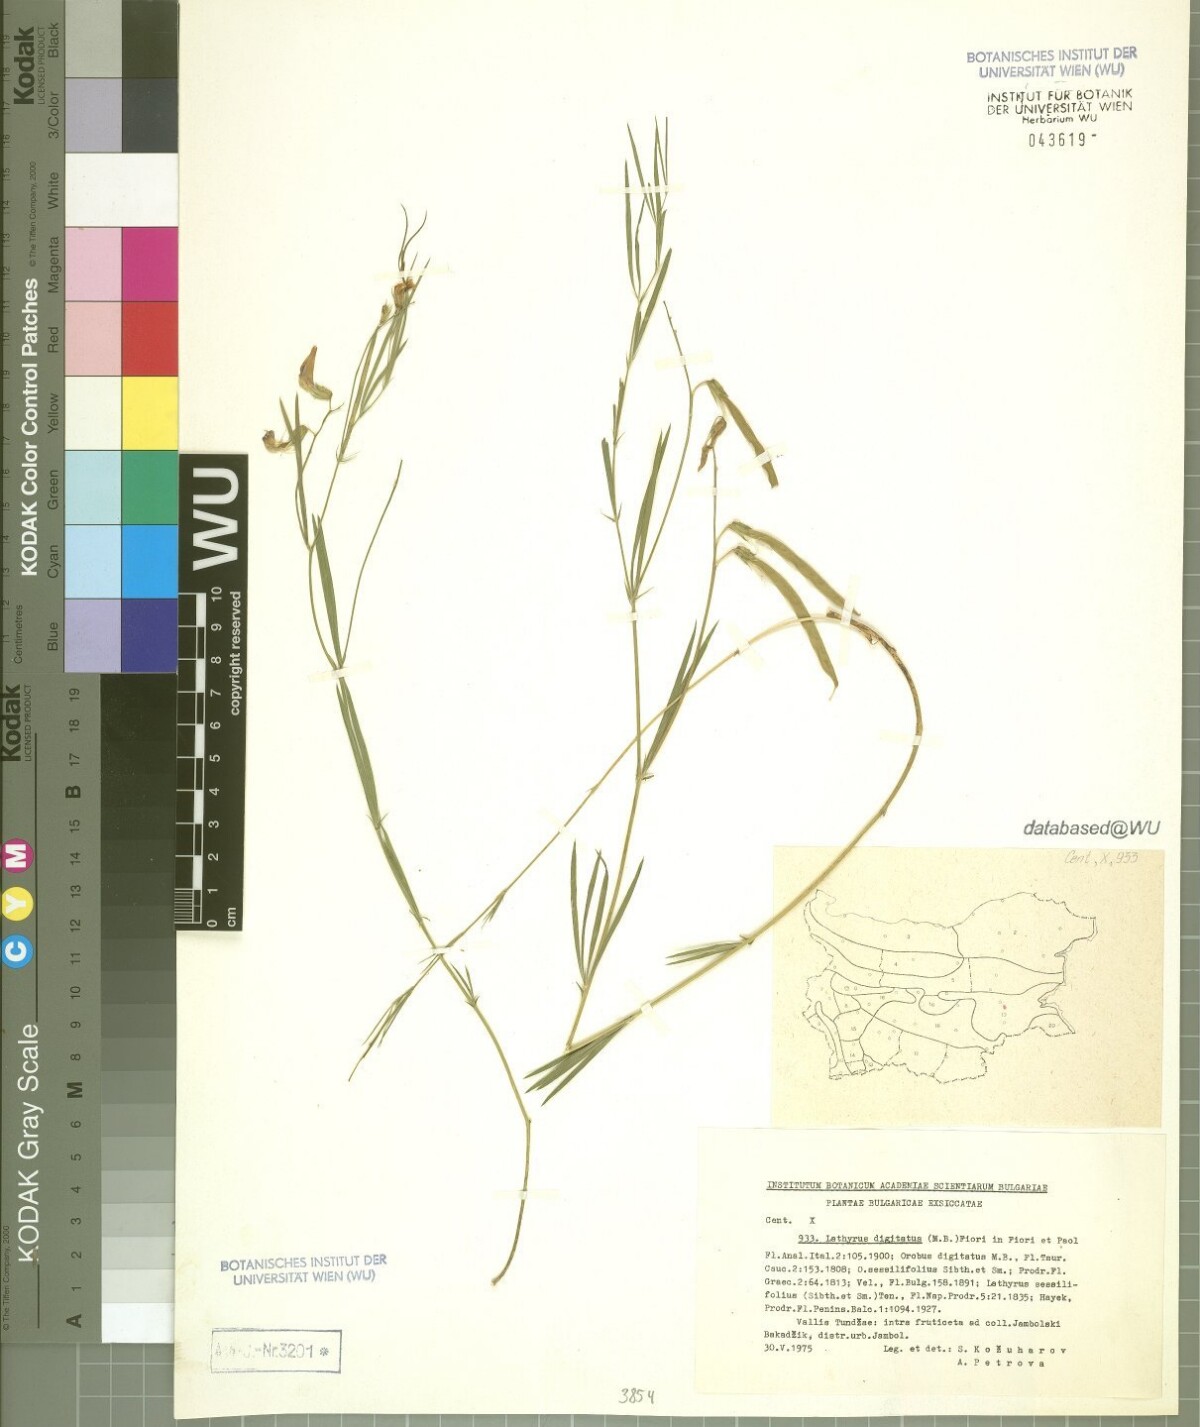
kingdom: Plantae
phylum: Tracheophyta
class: Magnoliopsida
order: Fabales
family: Fabaceae
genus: Lathyrus
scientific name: Lathyrus digitatus
